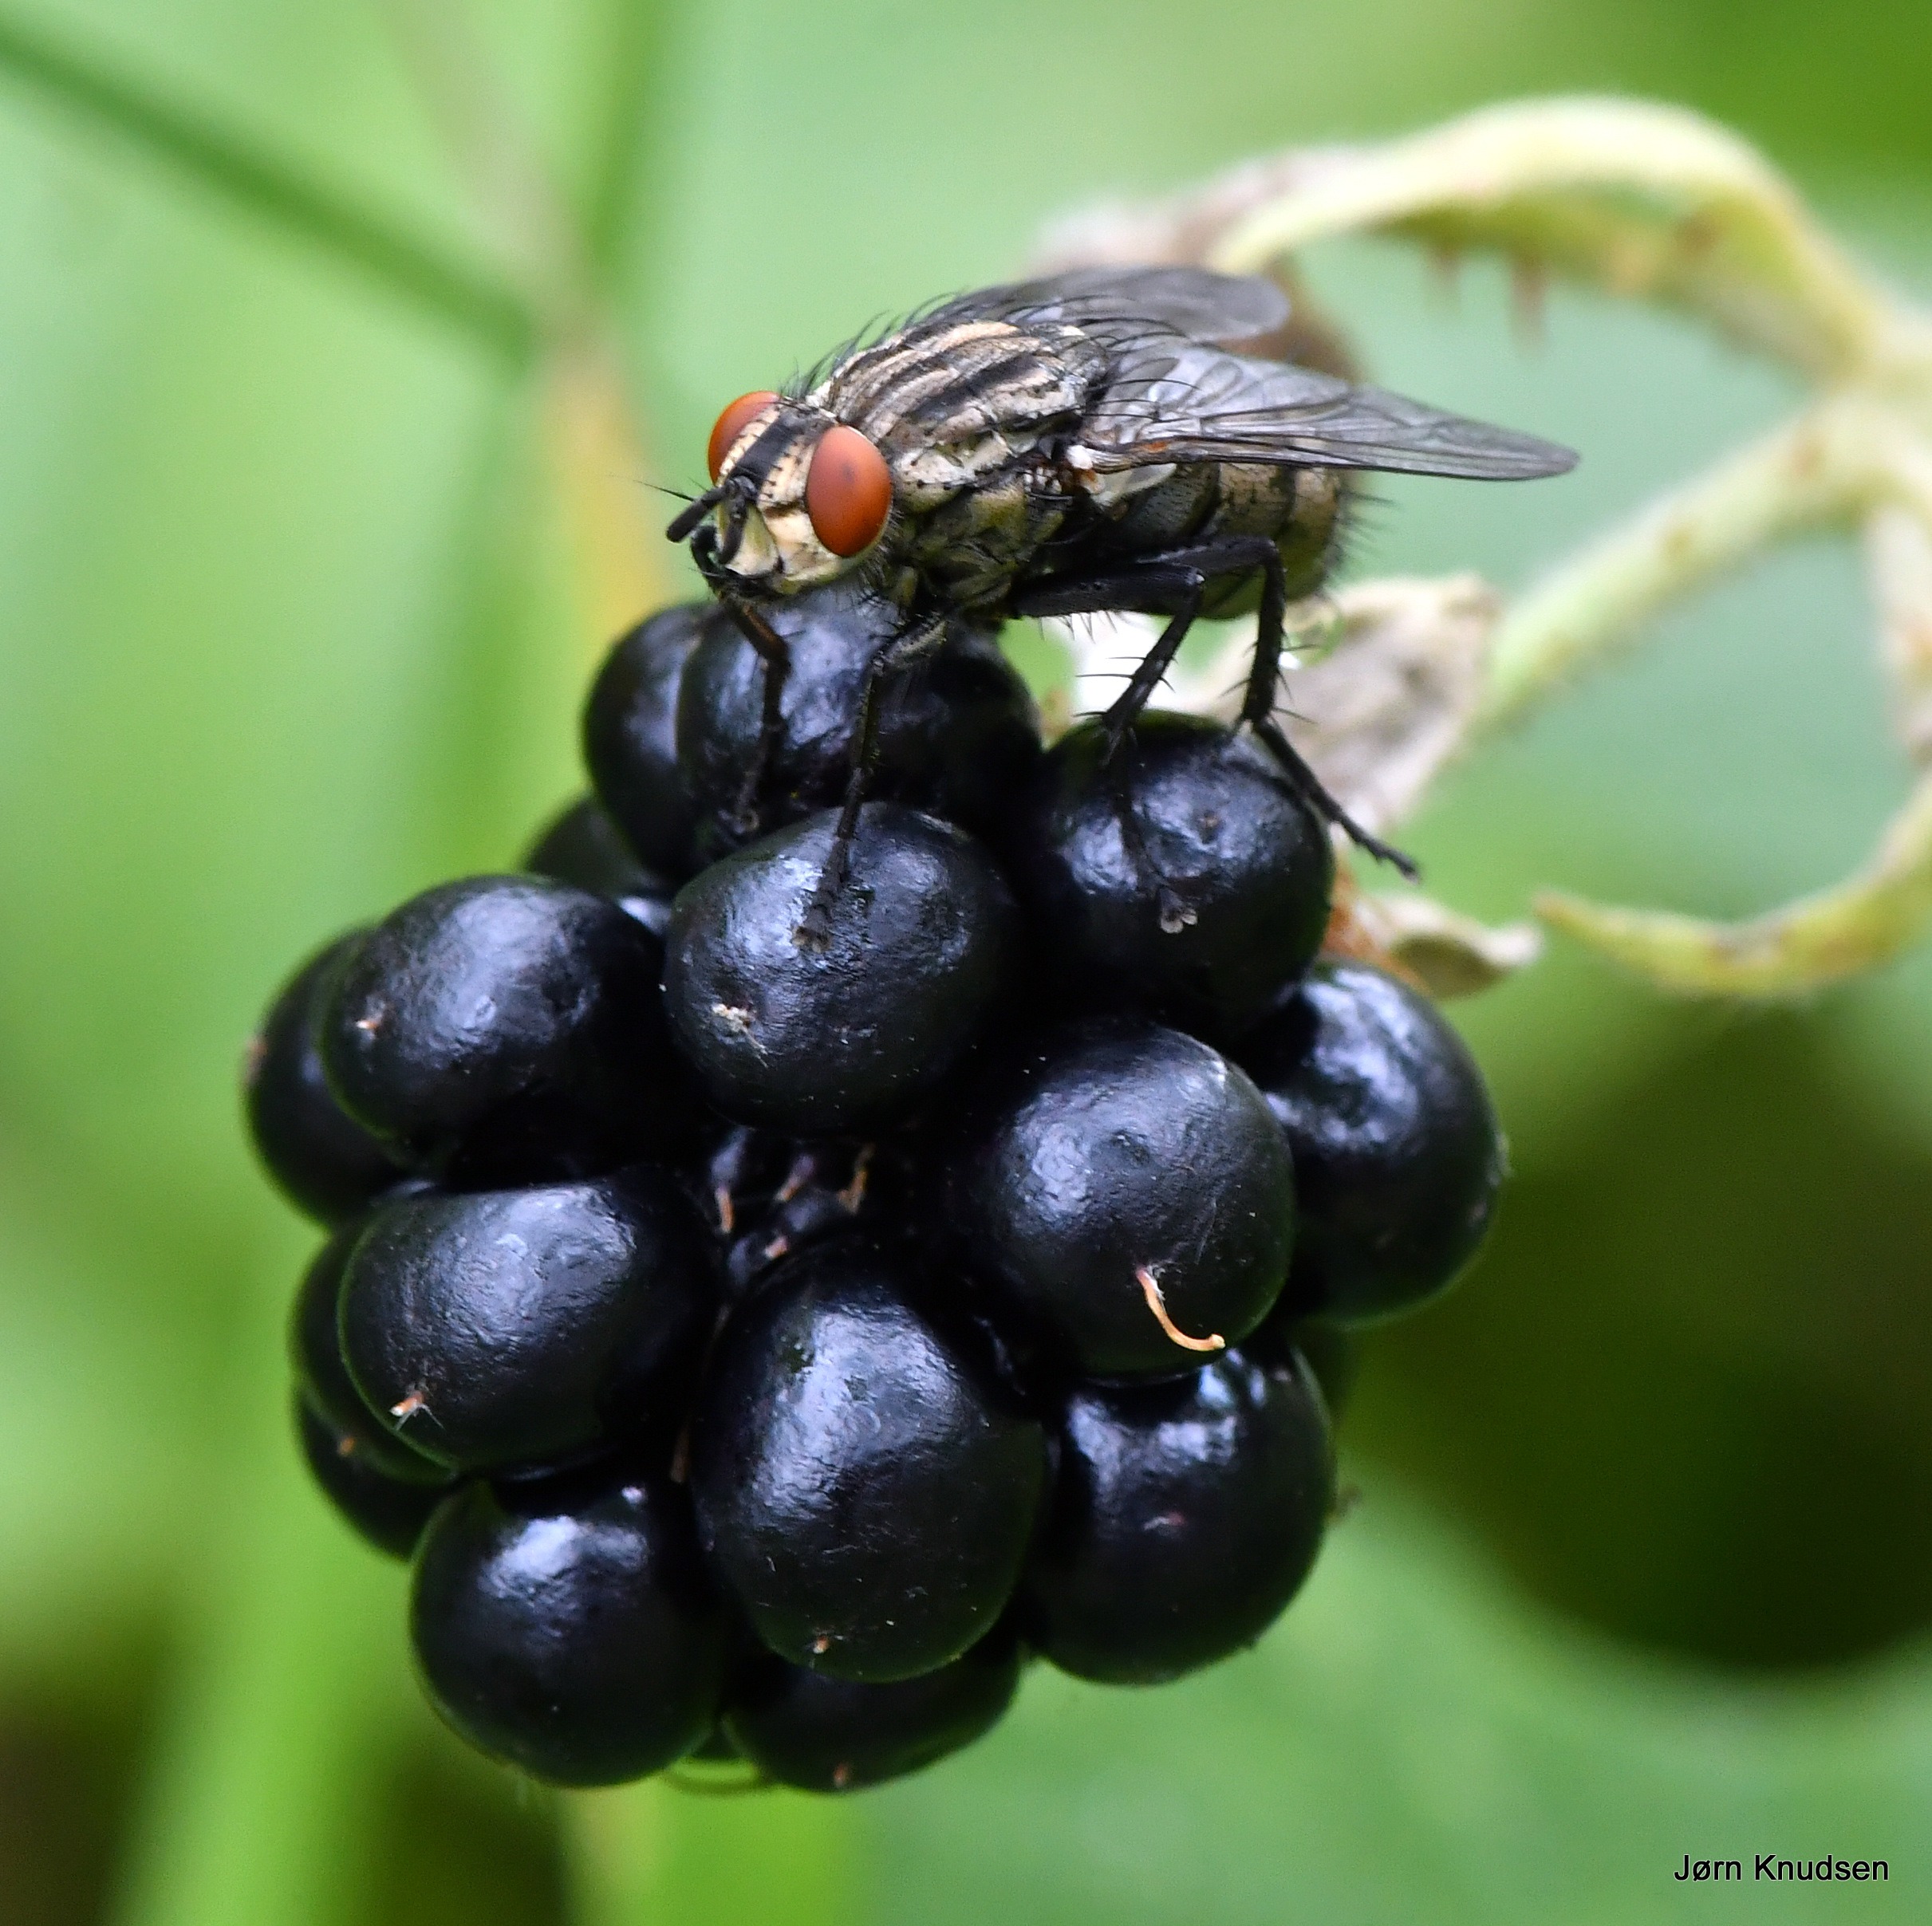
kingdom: Animalia
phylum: Arthropoda
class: Insecta
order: Diptera
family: Sarcophagidae
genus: Sarcophaga
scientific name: Sarcophaga
